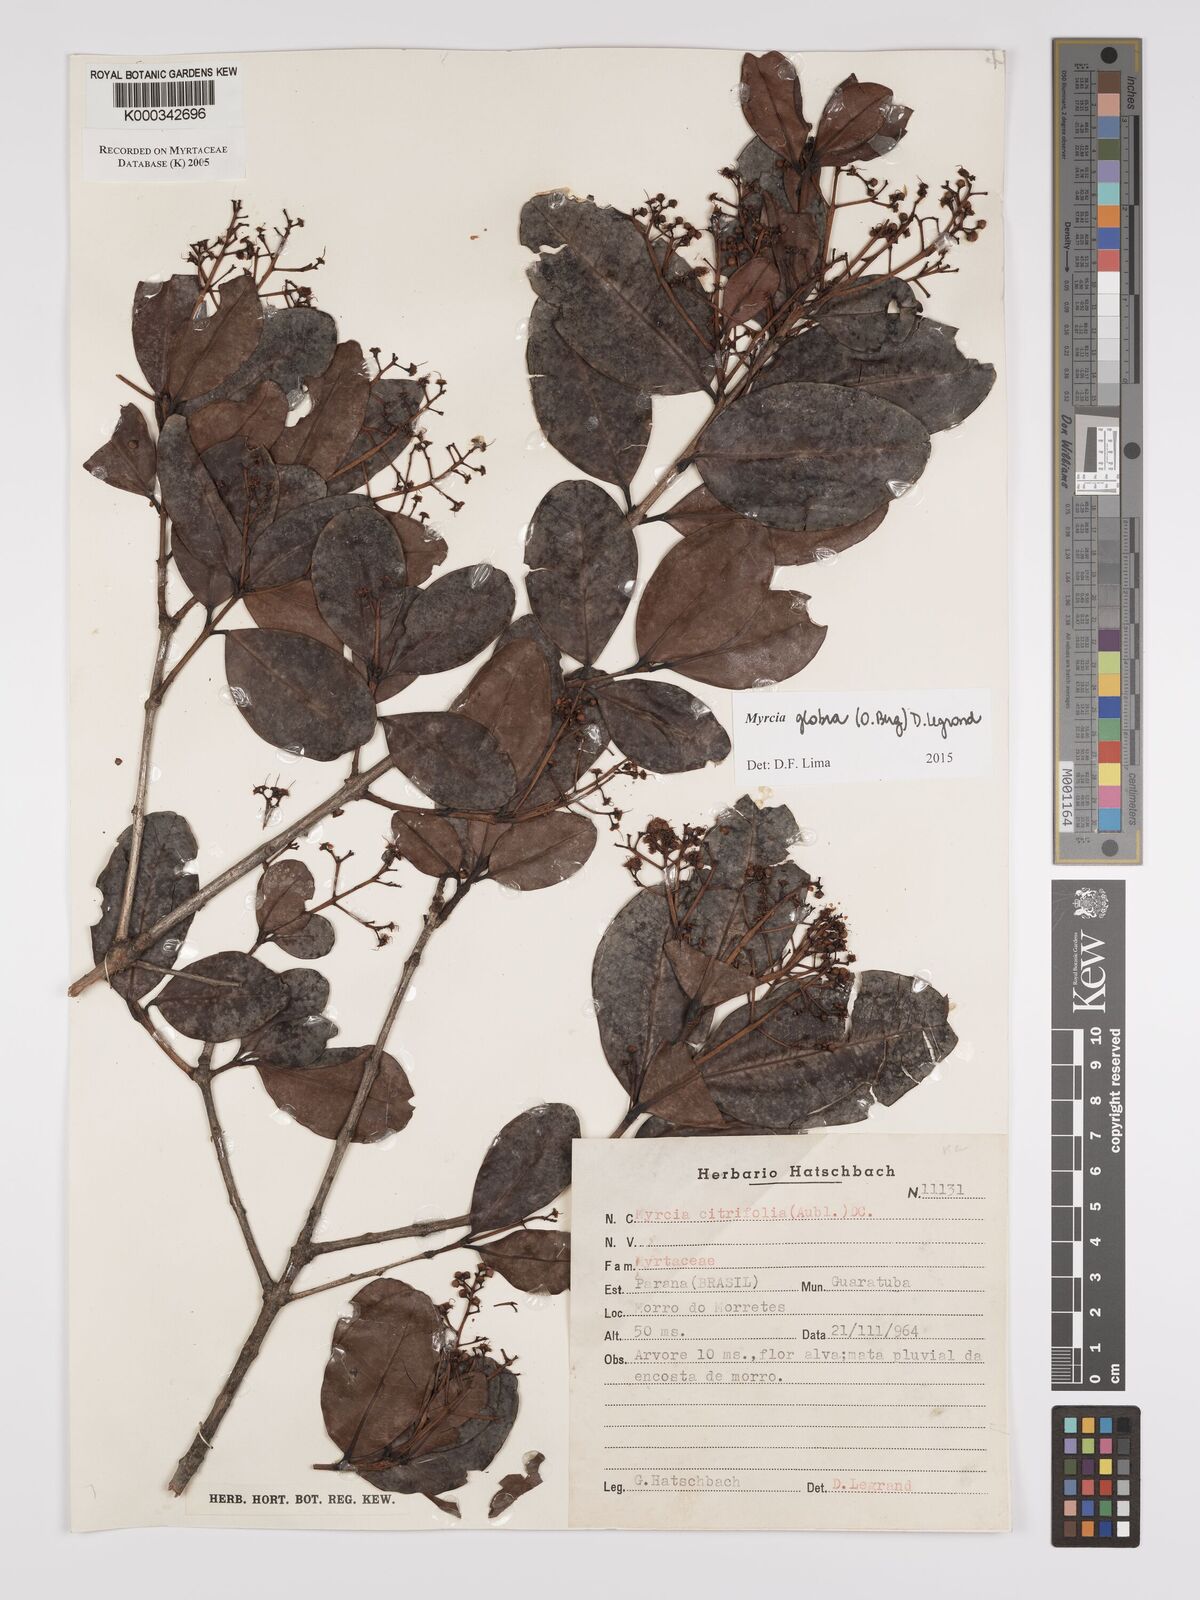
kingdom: Plantae
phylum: Tracheophyta
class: Magnoliopsida
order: Myrtales
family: Myrtaceae
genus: Myrcia
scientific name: Myrcia guianensis
